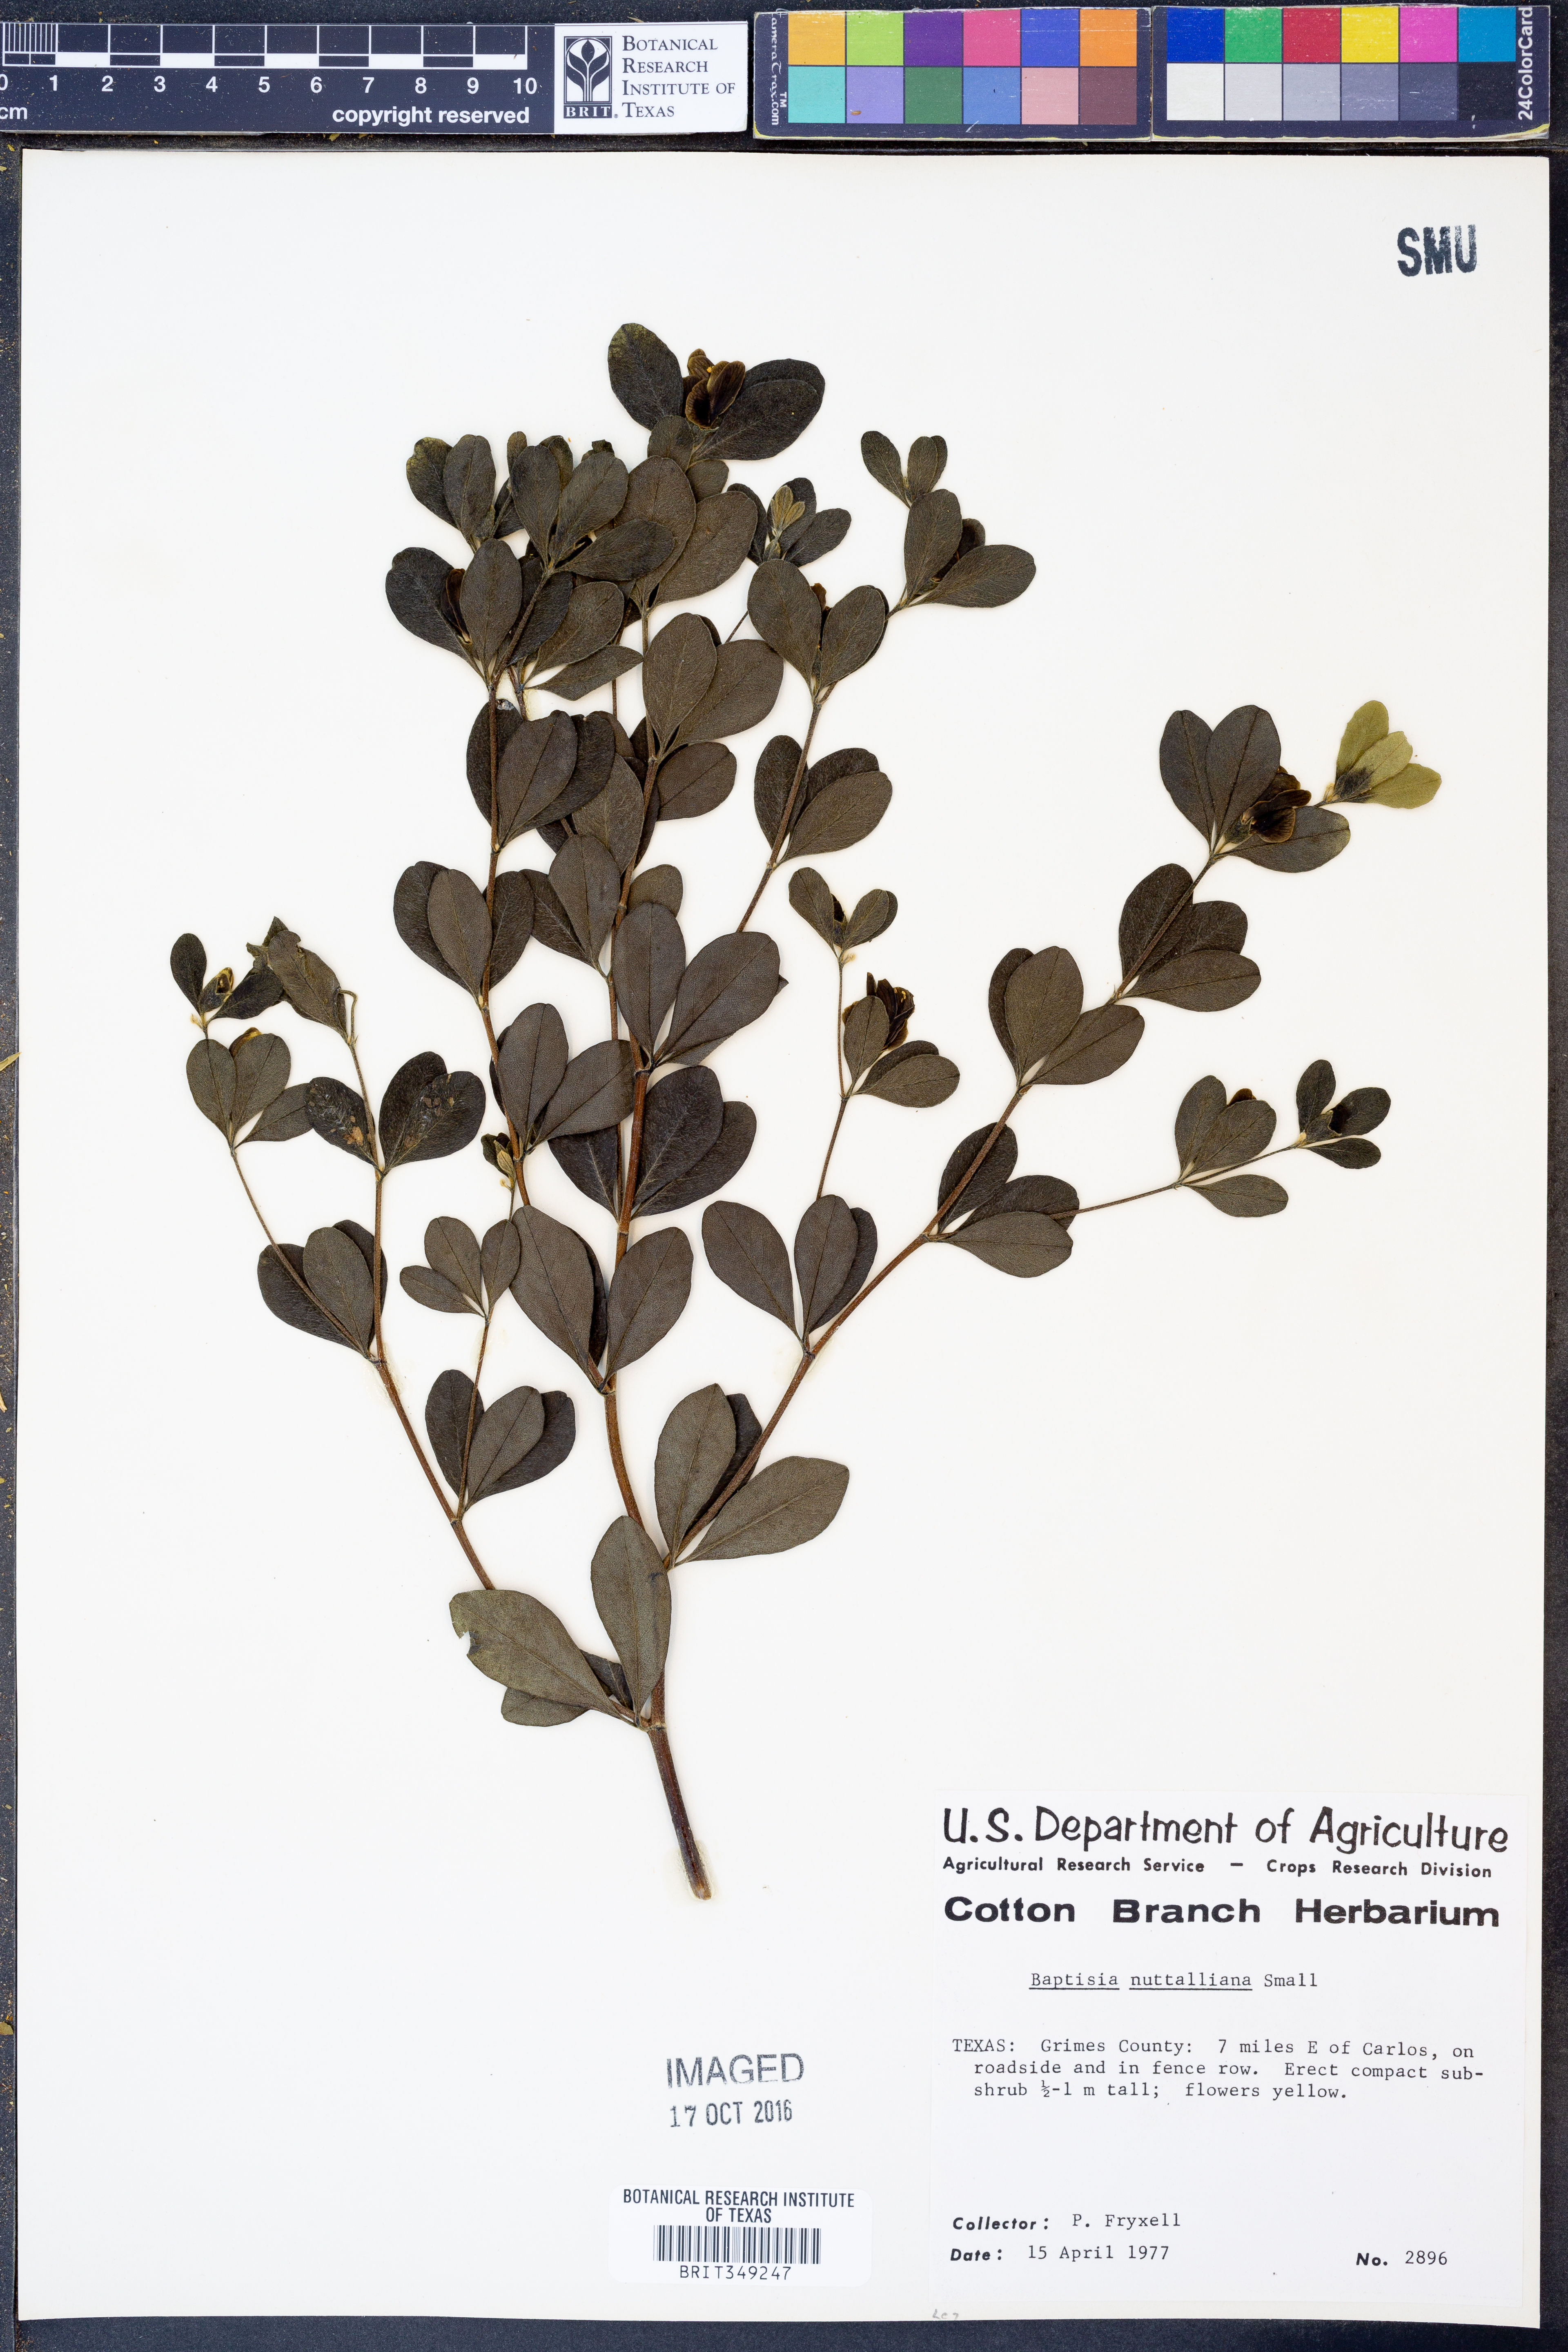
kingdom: Plantae
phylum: Tracheophyta
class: Magnoliopsida
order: Fabales
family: Fabaceae
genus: Baptisia
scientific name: Baptisia nuttalliana
